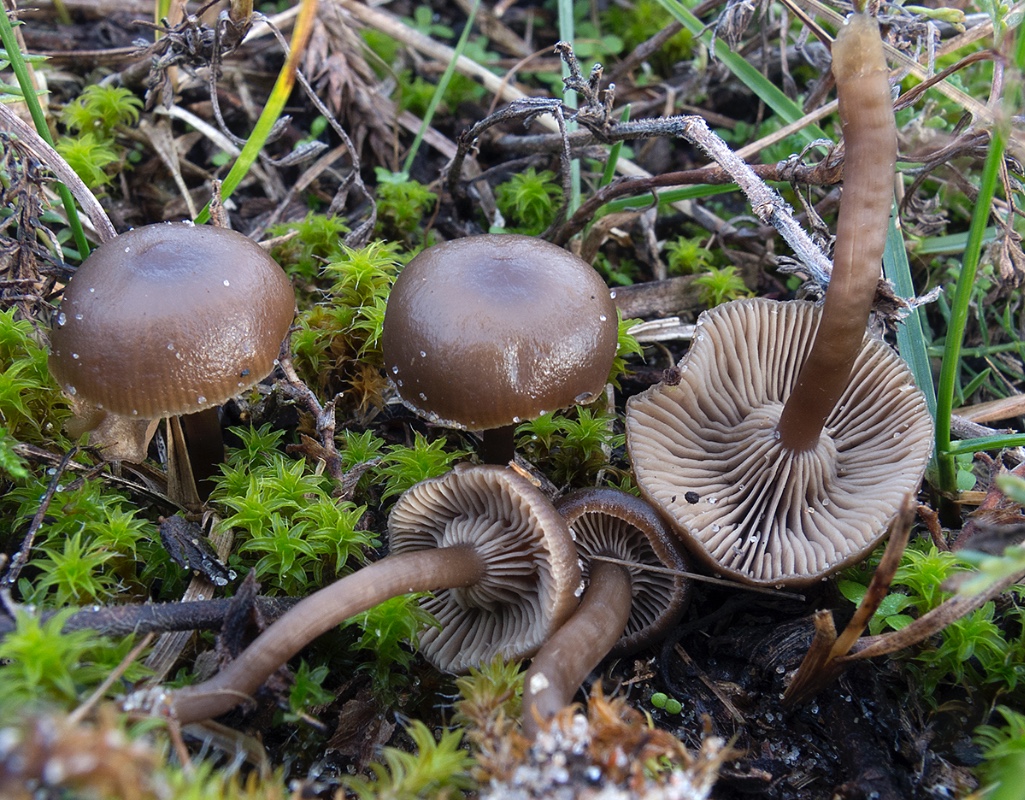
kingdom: Fungi
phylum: Basidiomycota
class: Agaricomycetes
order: Agaricales
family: Tricholomataceae
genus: Clitocybe
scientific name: Clitocybe barbularum
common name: klit-tragthat
